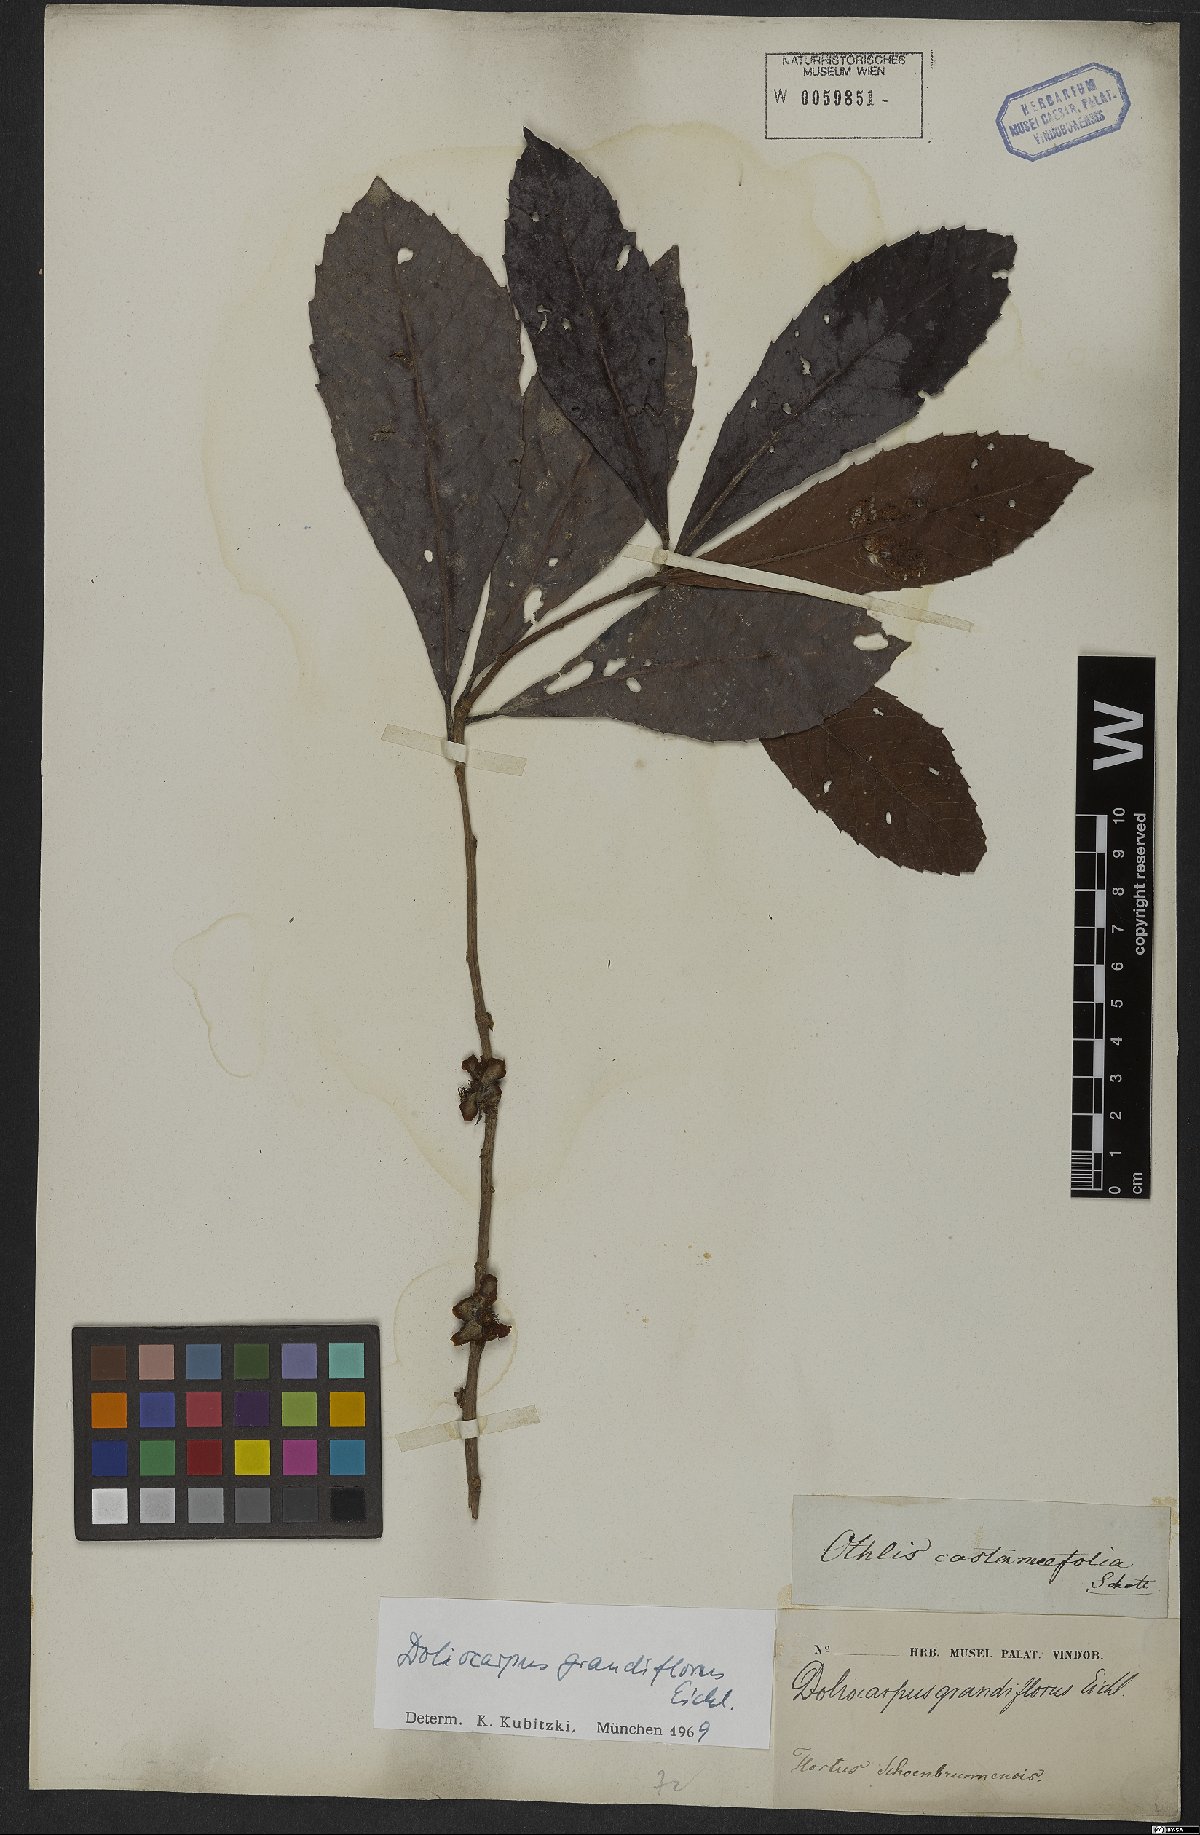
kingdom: Plantae
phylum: Tracheophyta
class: Magnoliopsida
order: Dilleniales
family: Dilleniaceae
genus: Doliocarpus
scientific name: Doliocarpus grandiflorus
